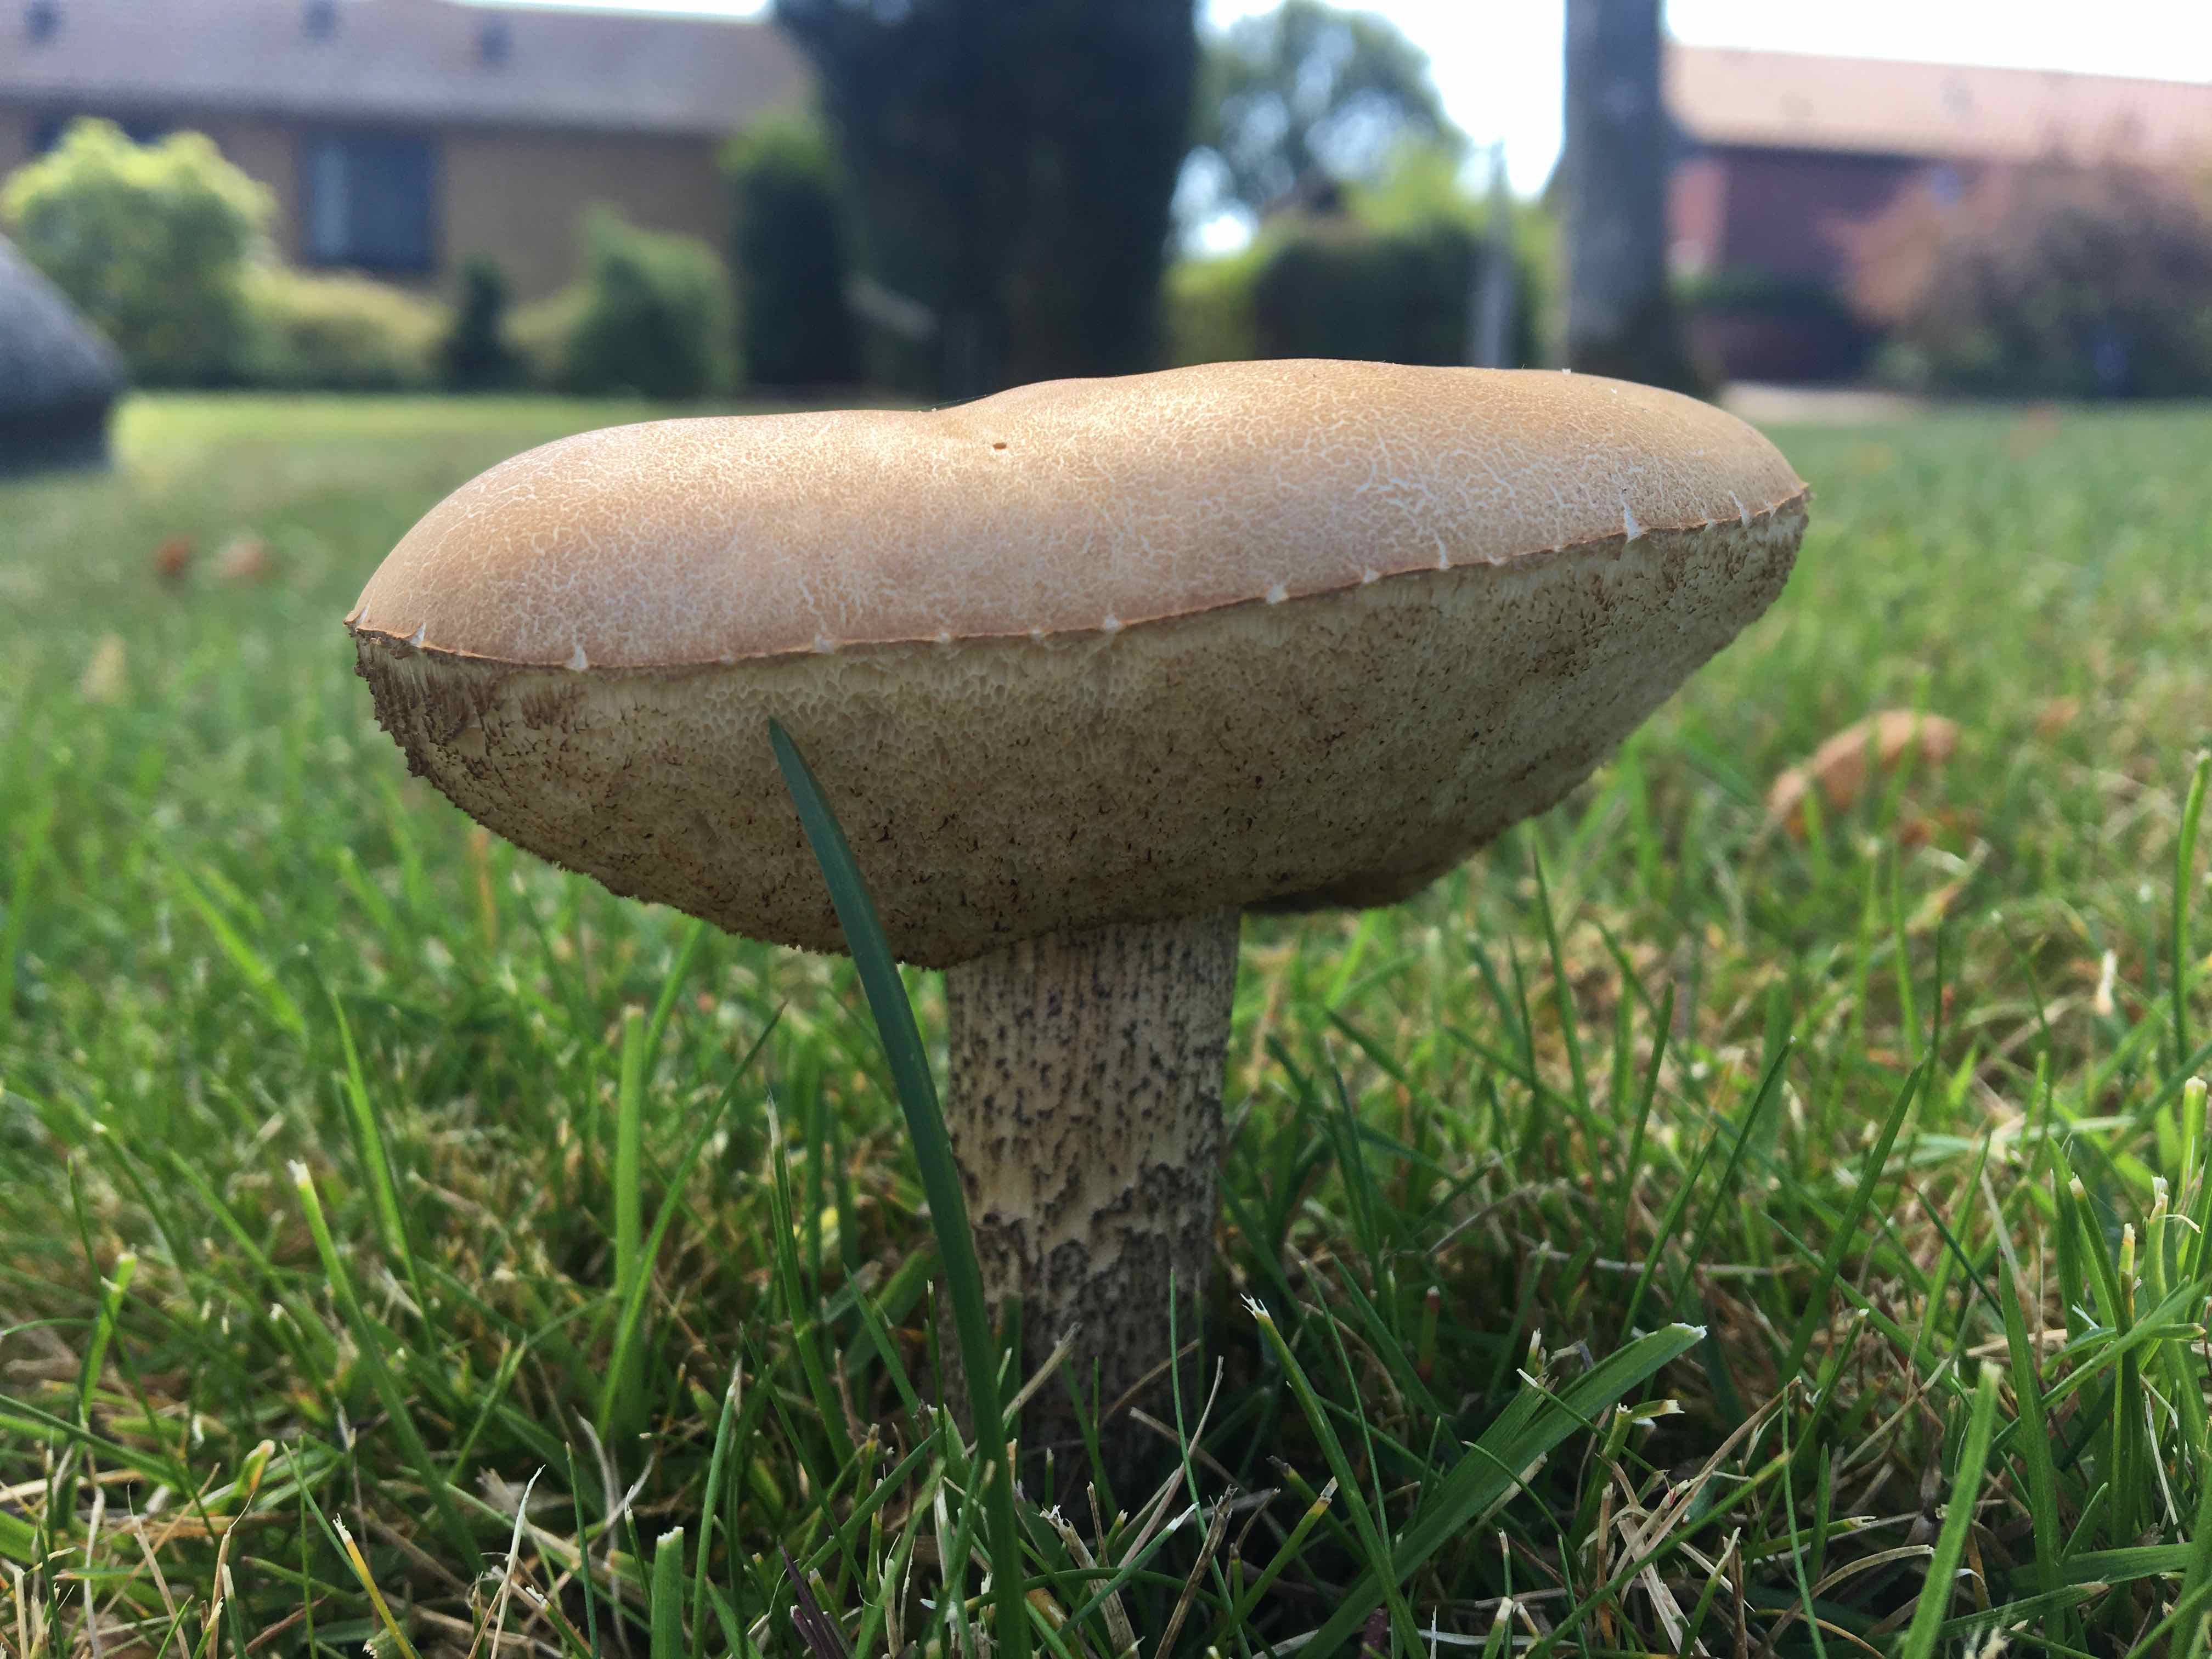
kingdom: Fungi
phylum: Basidiomycota
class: Agaricomycetes
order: Boletales
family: Boletaceae
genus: Leccinum
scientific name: Leccinum scabrum
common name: brun skælrørhat
